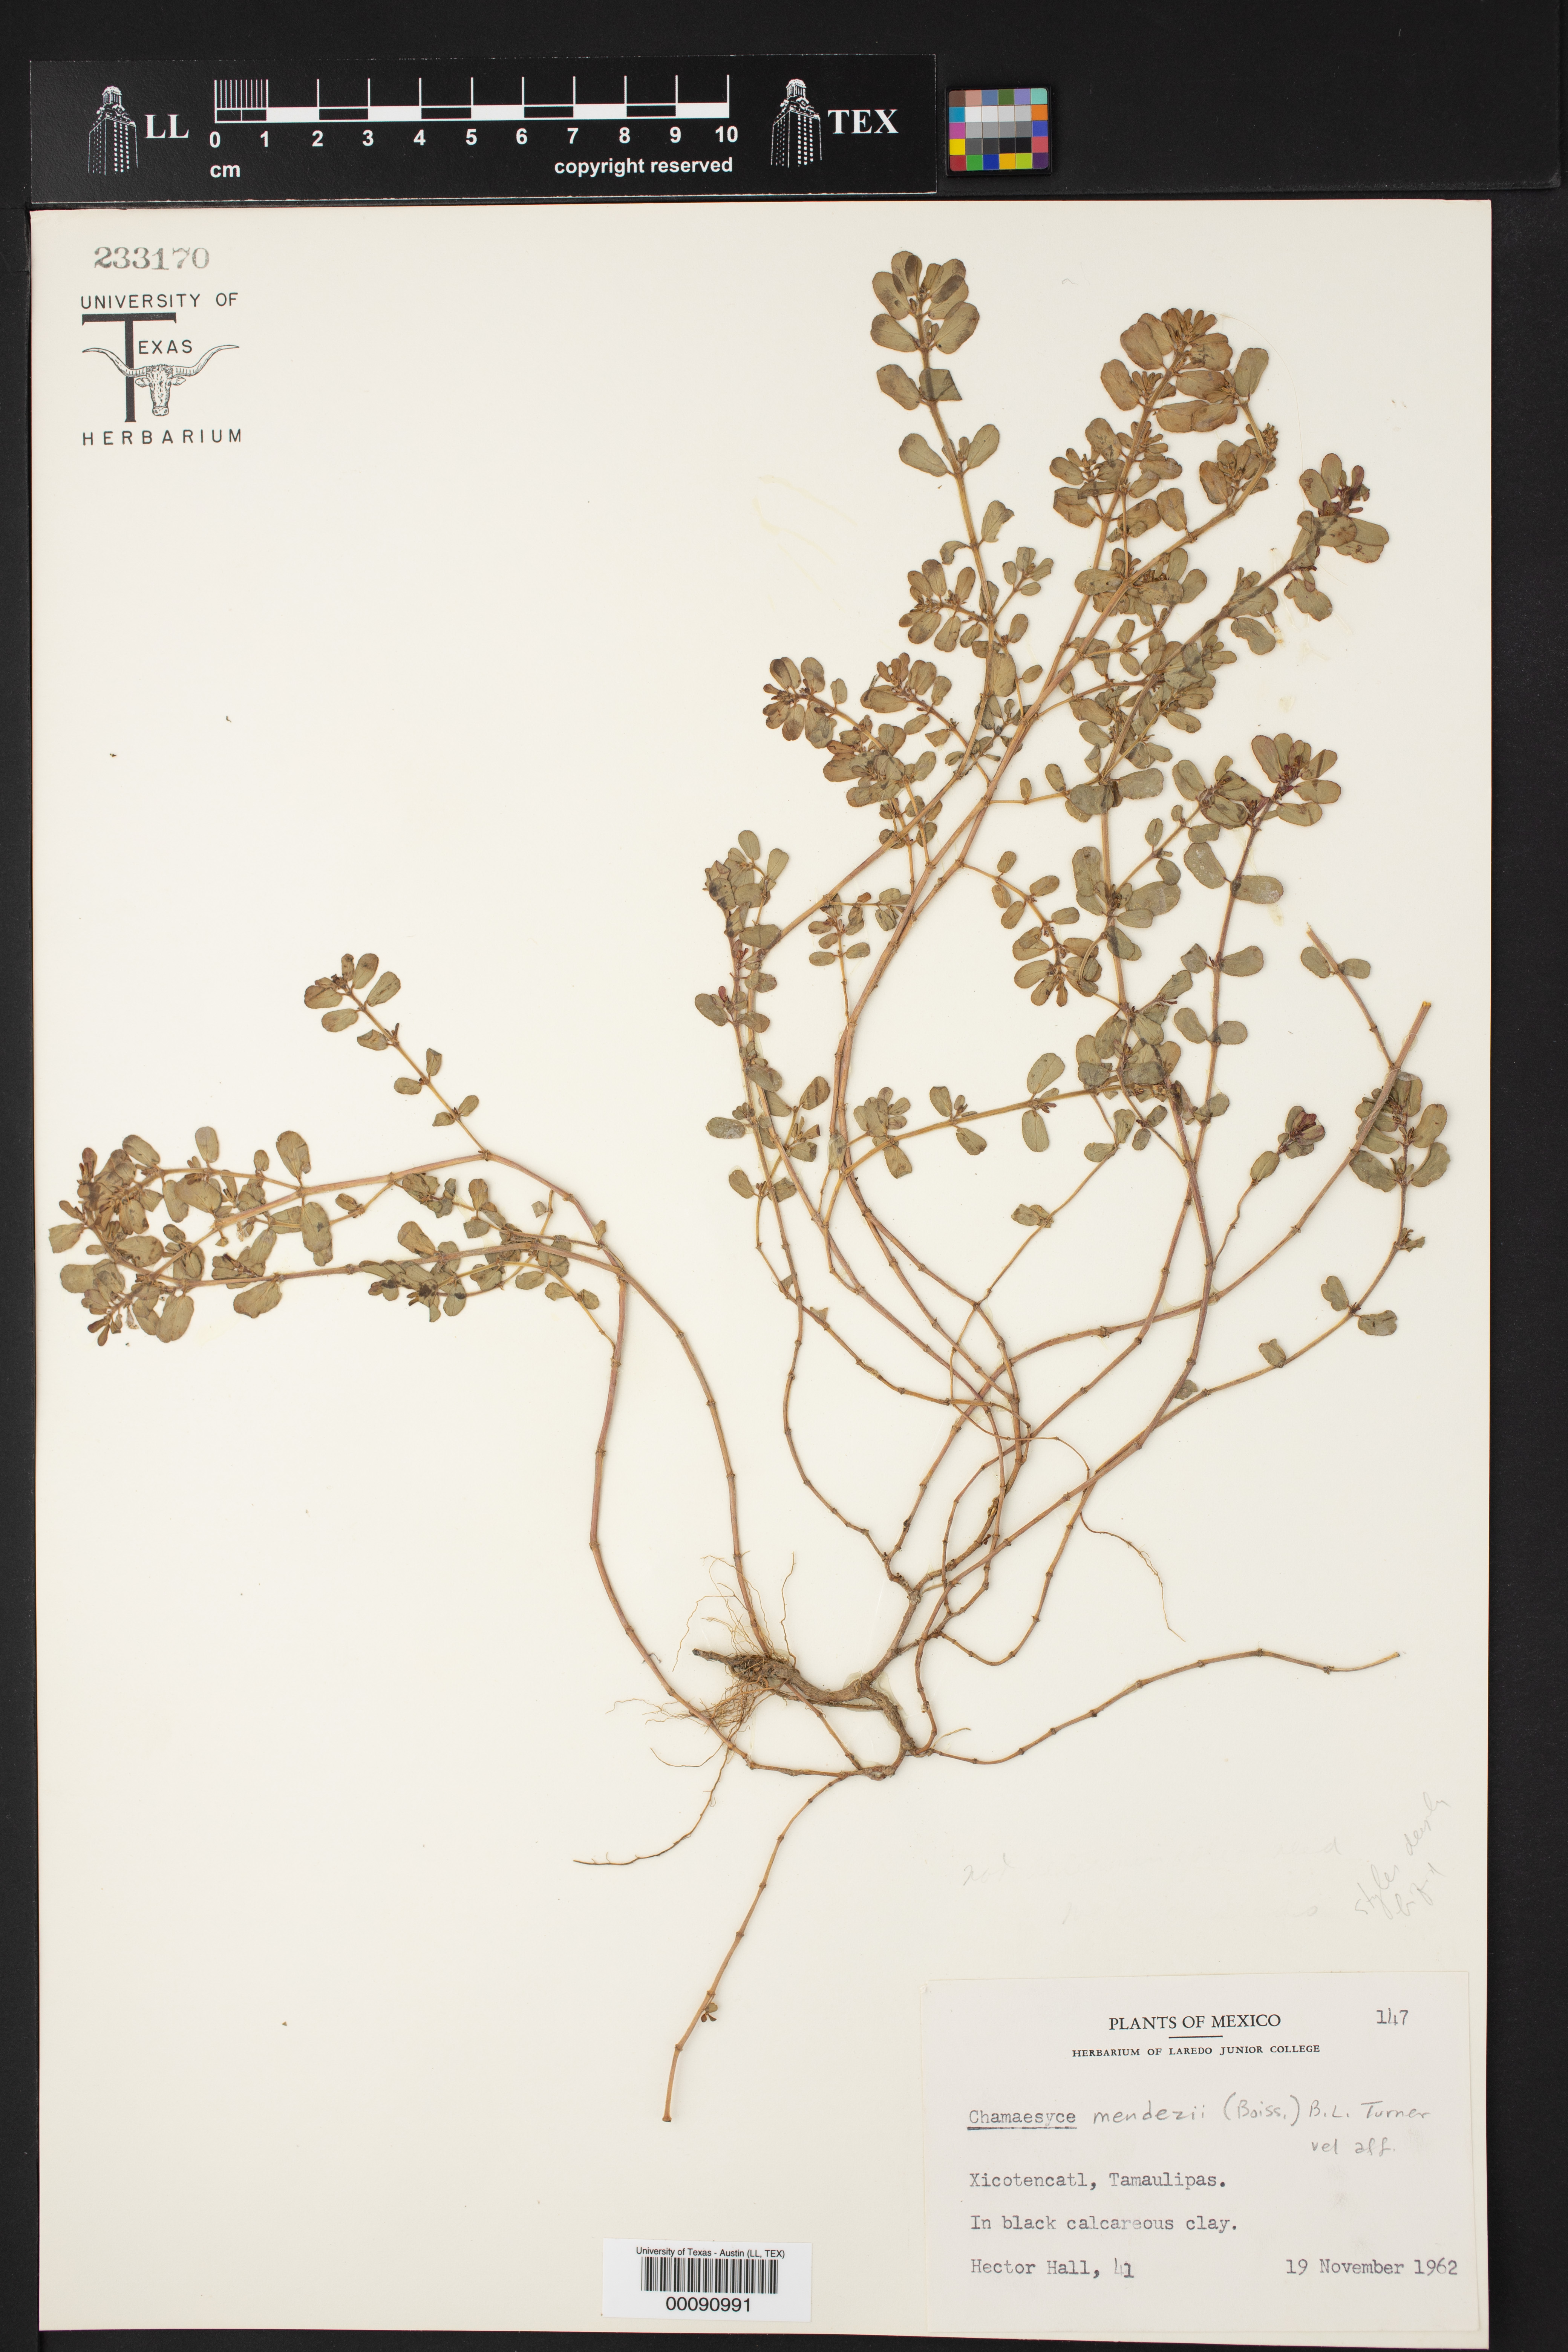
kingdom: Plantae
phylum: Tracheophyta
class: Magnoliopsida
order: Malpighiales
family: Euphorbiaceae
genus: Euphorbia
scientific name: Euphorbia mendezii
